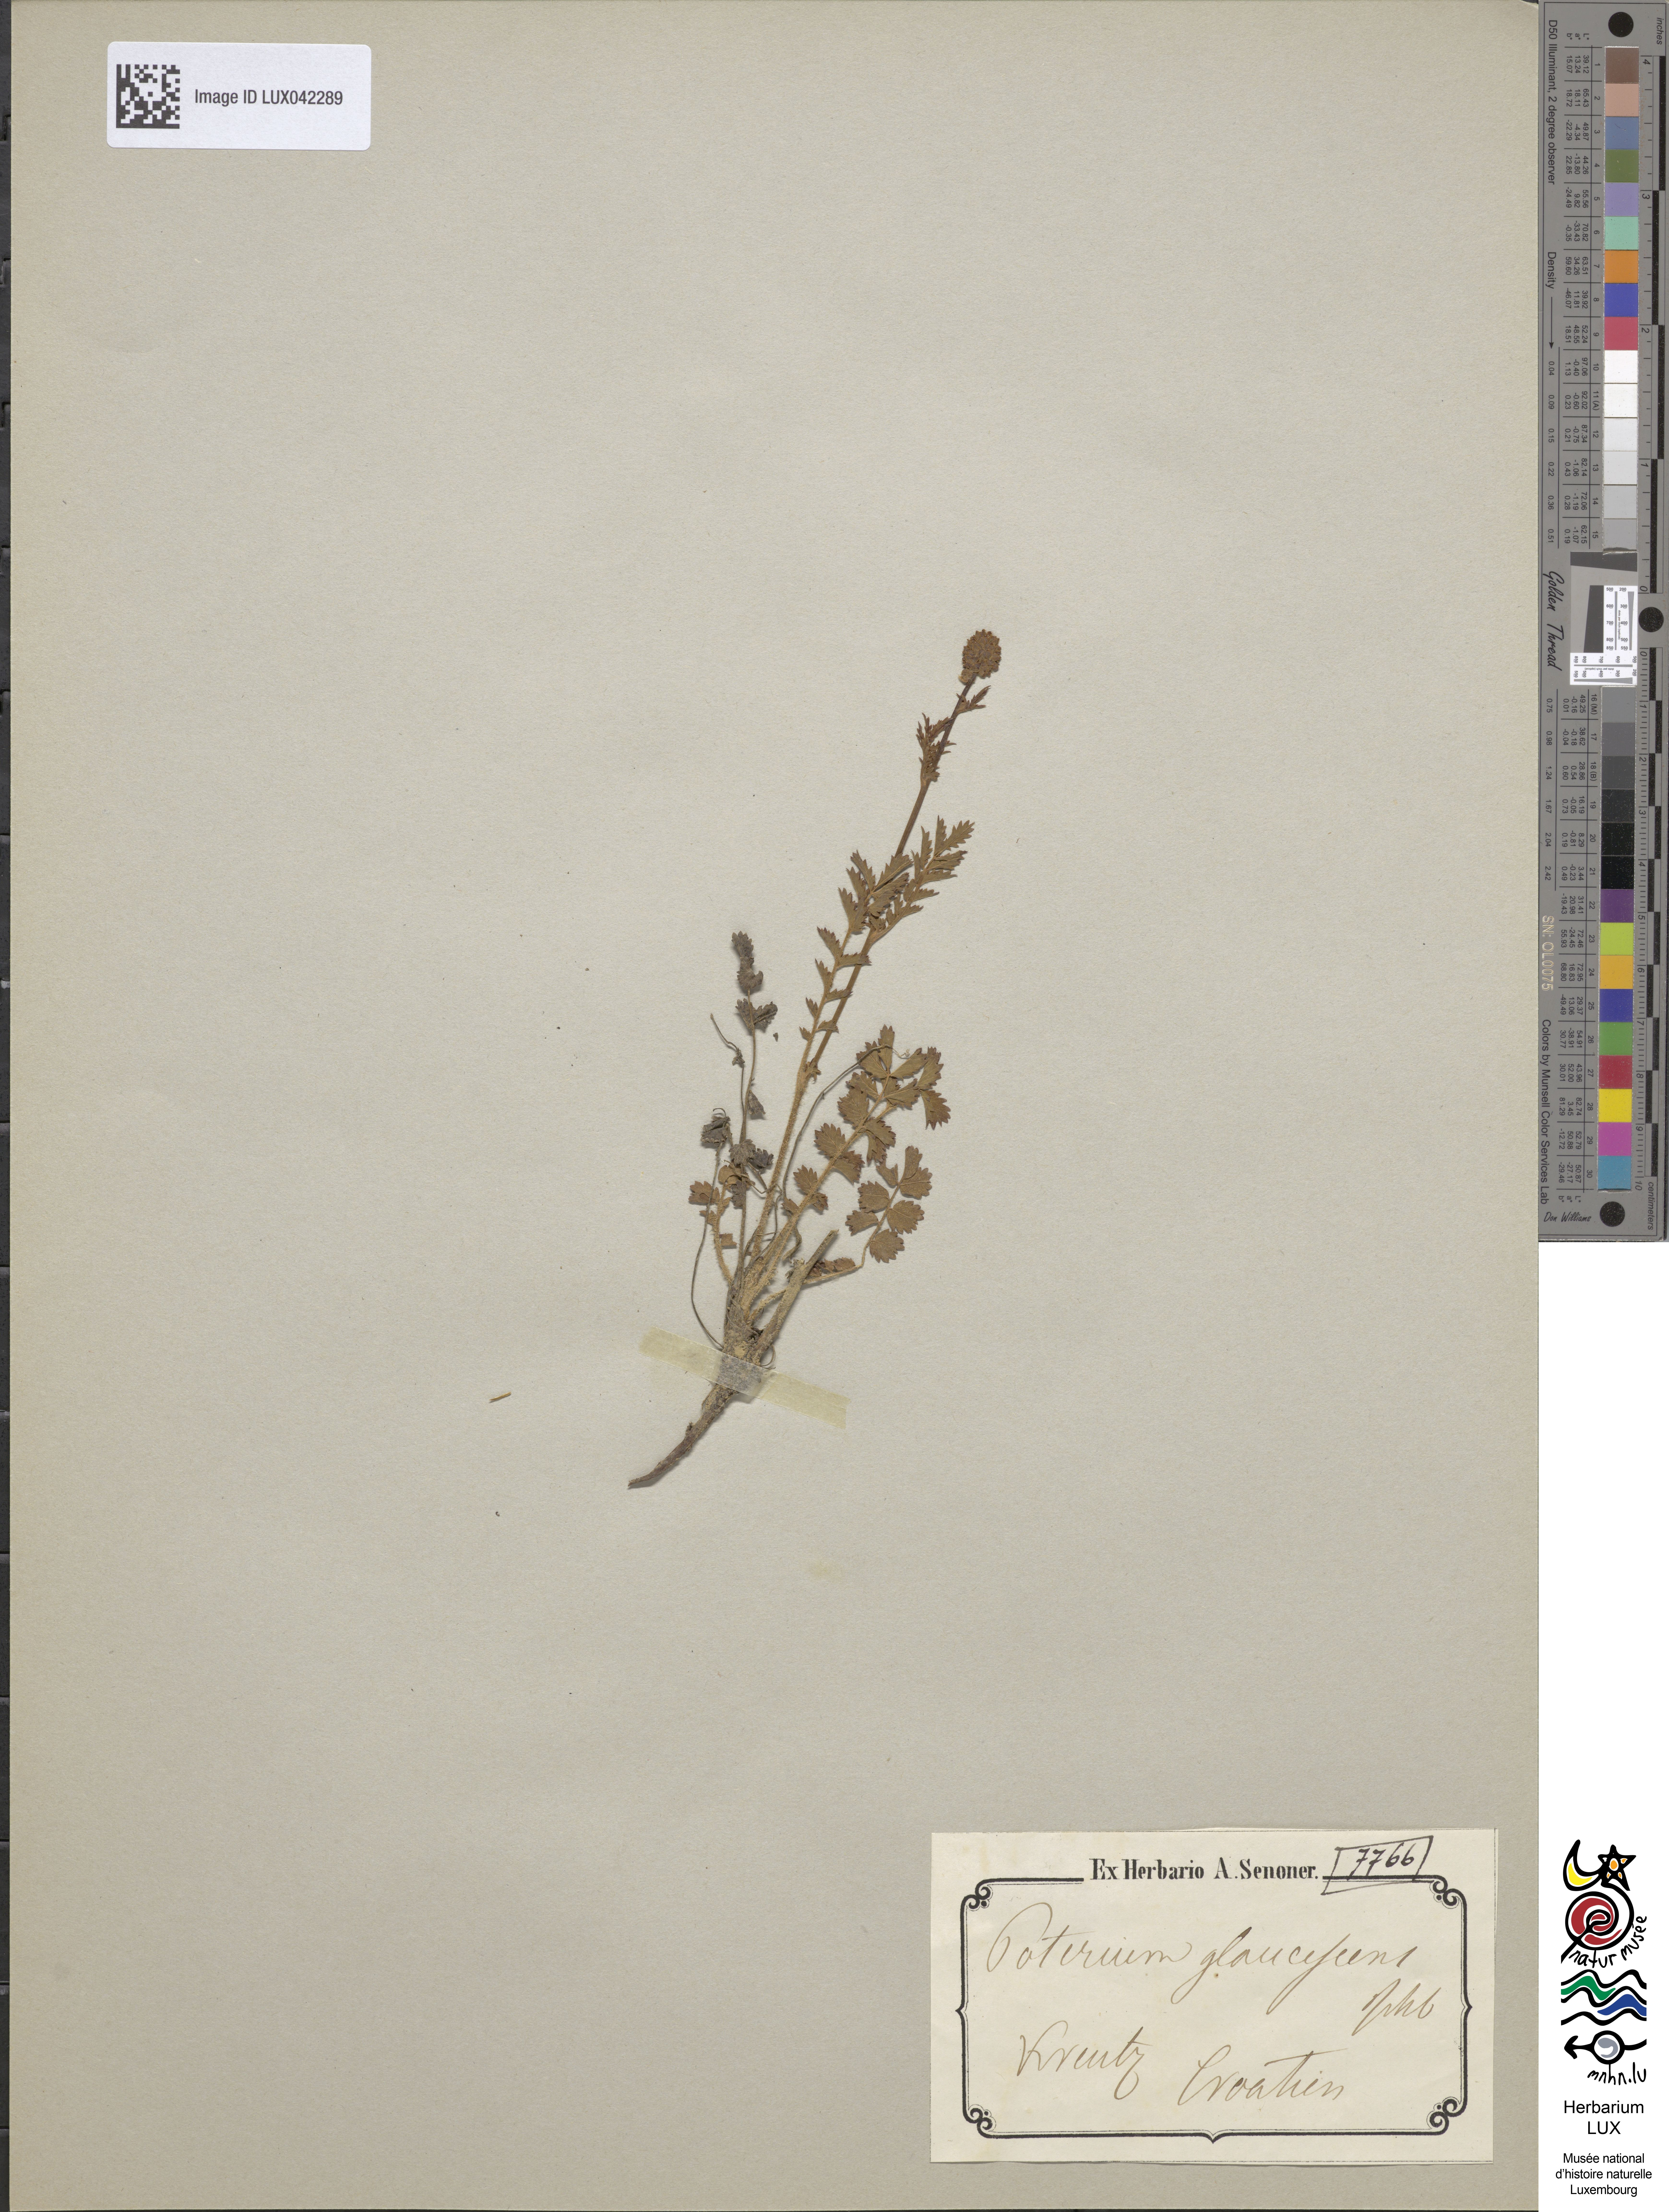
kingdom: Plantae
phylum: Tracheophyta
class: Magnoliopsida
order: Rosales
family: Rosaceae
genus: Poterium
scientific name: Poterium sanguisorba
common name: Salad burnet
